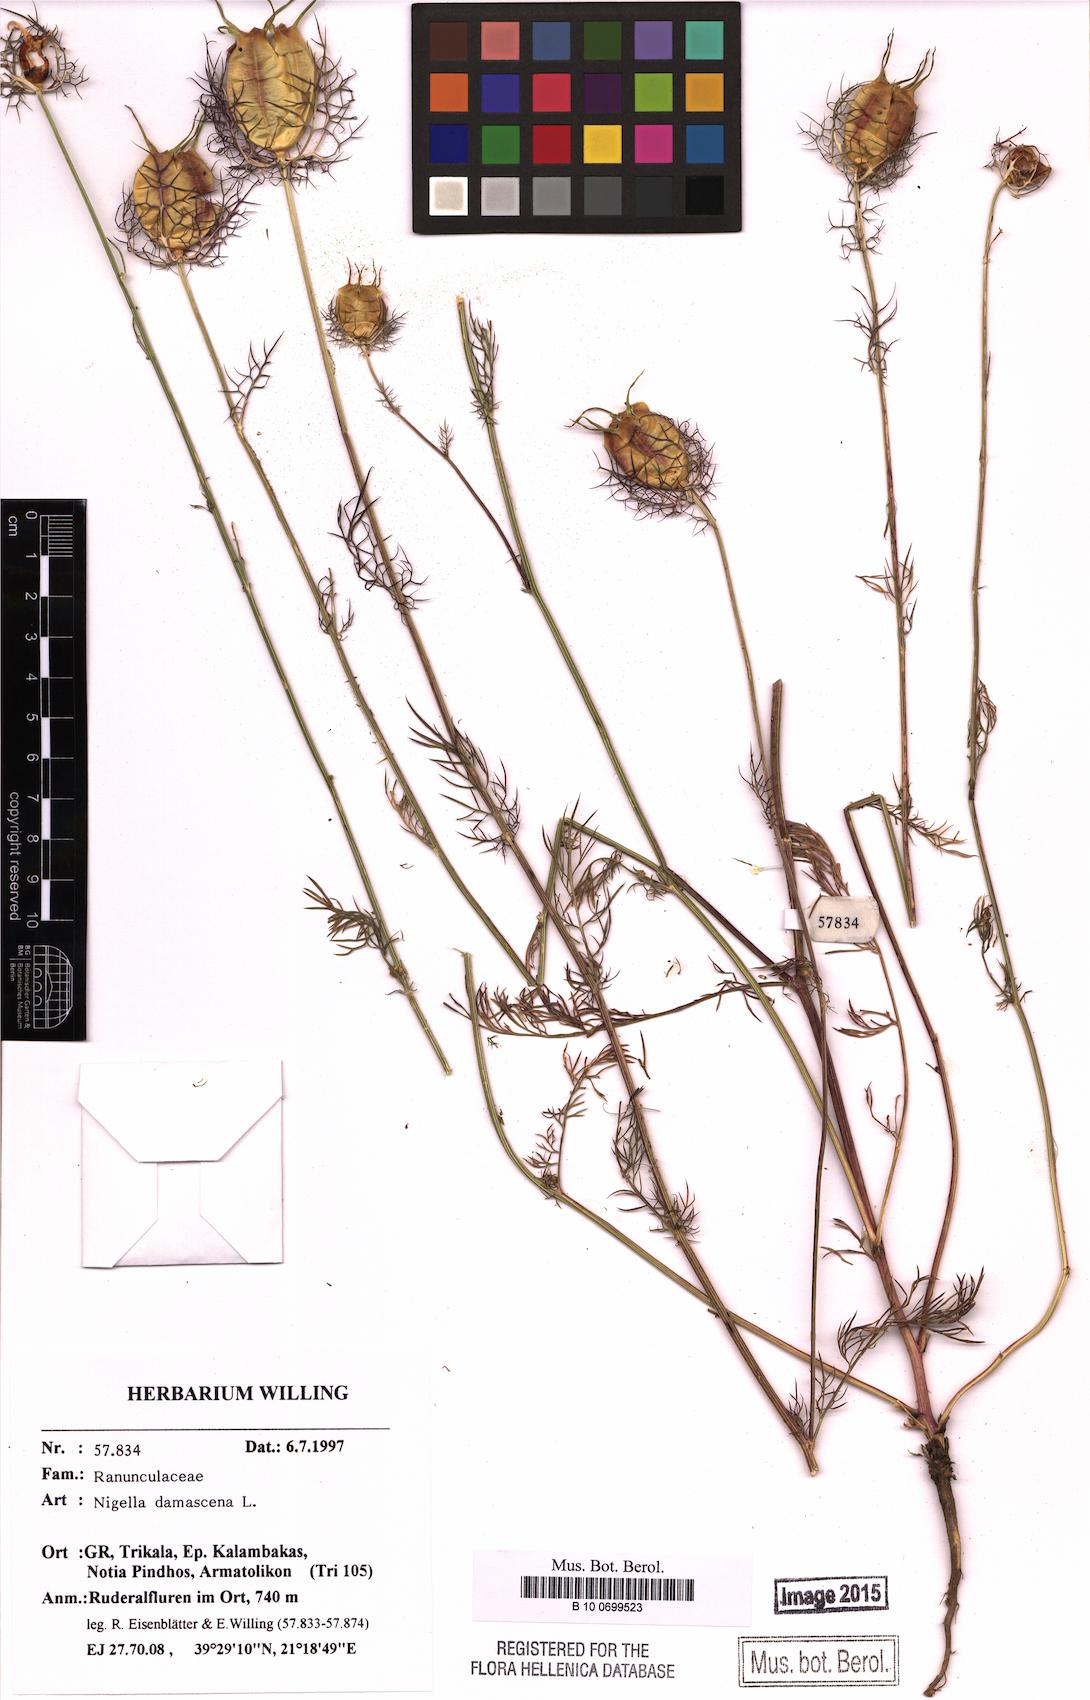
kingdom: Plantae
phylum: Tracheophyta
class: Magnoliopsida
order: Ranunculales
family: Ranunculaceae
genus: Nigella
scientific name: Nigella damascena
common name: Love-in-a-mist
